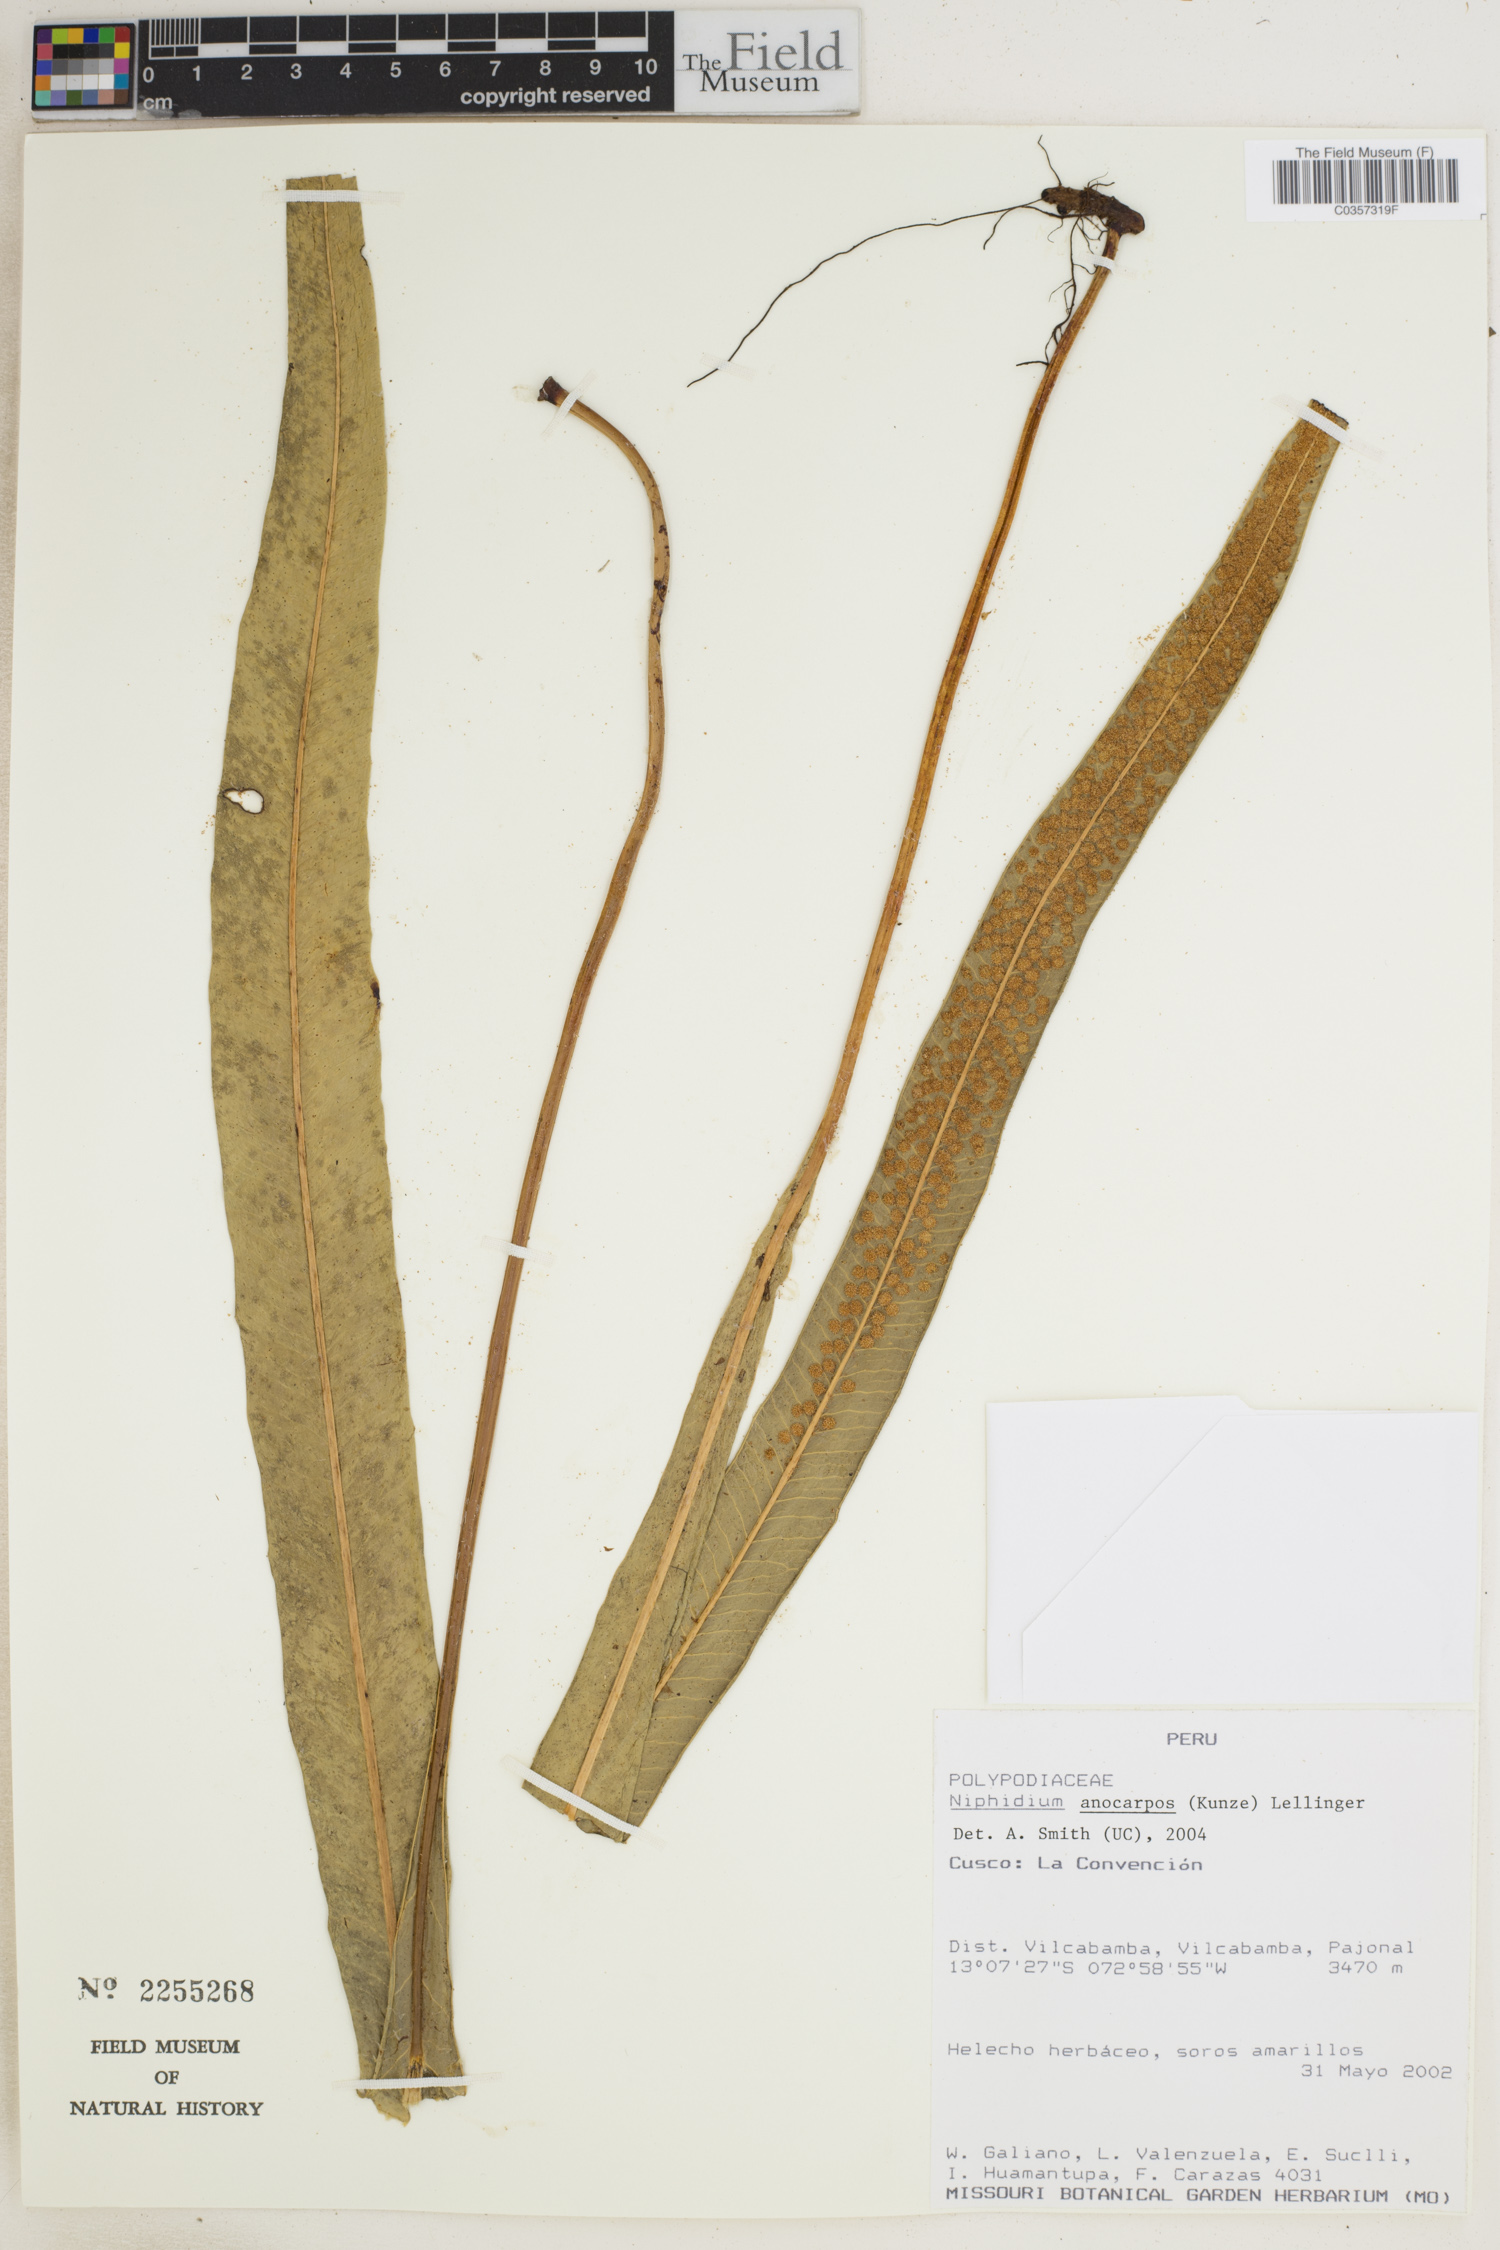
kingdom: Plantae
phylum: Tracheophyta
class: Polypodiopsida
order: Polypodiales
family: Polypodiaceae
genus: Niphidium
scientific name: Niphidium anocarpos
